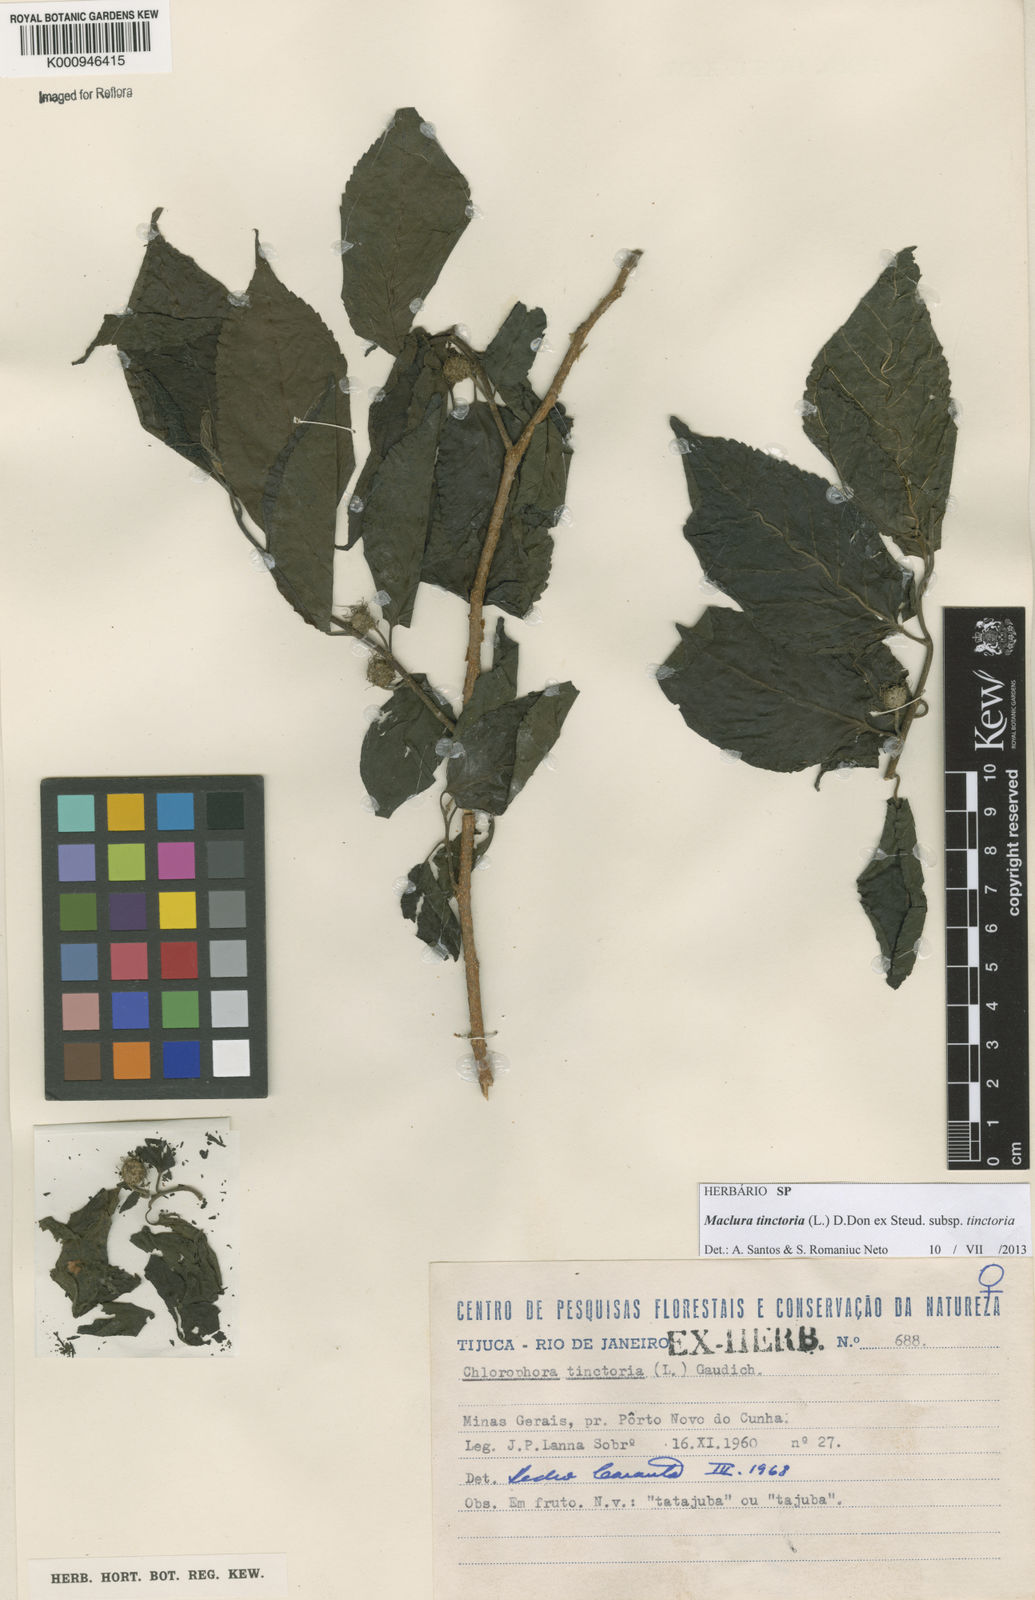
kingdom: Plantae
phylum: Tracheophyta
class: Magnoliopsida
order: Rosales
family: Moraceae
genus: Maclura
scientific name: Maclura tinctoria
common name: Old fustic
